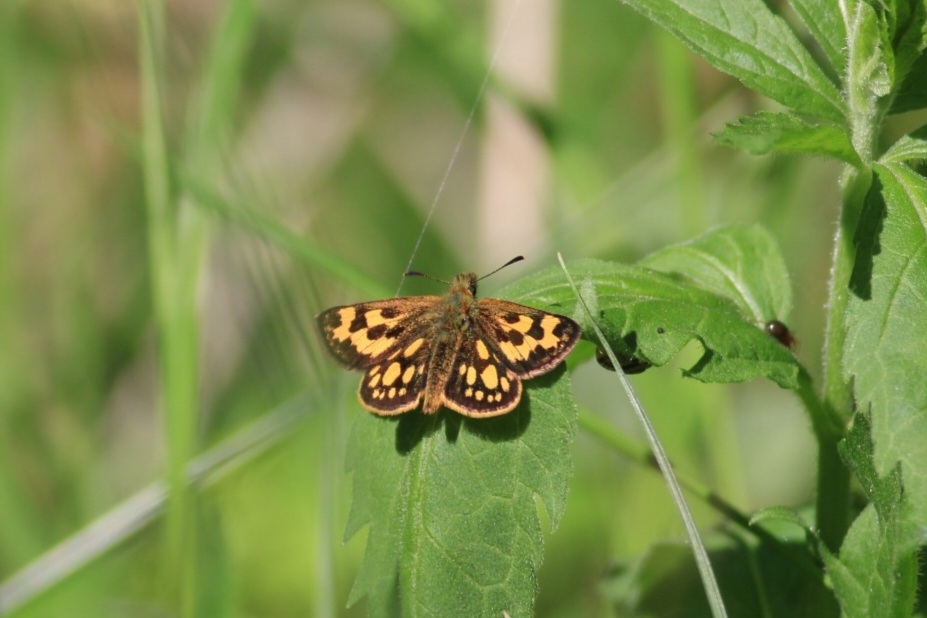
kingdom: Animalia
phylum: Arthropoda
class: Insecta
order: Lepidoptera
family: Hesperiidae
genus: Carterocephalus
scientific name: Carterocephalus silvicola
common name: Sortplettet bredpande
